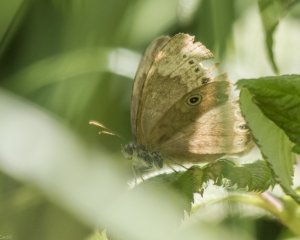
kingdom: Animalia
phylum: Arthropoda
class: Insecta
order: Lepidoptera
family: Nymphalidae
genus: Lethe
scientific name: Lethe eurydice
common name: Eyed Brown
